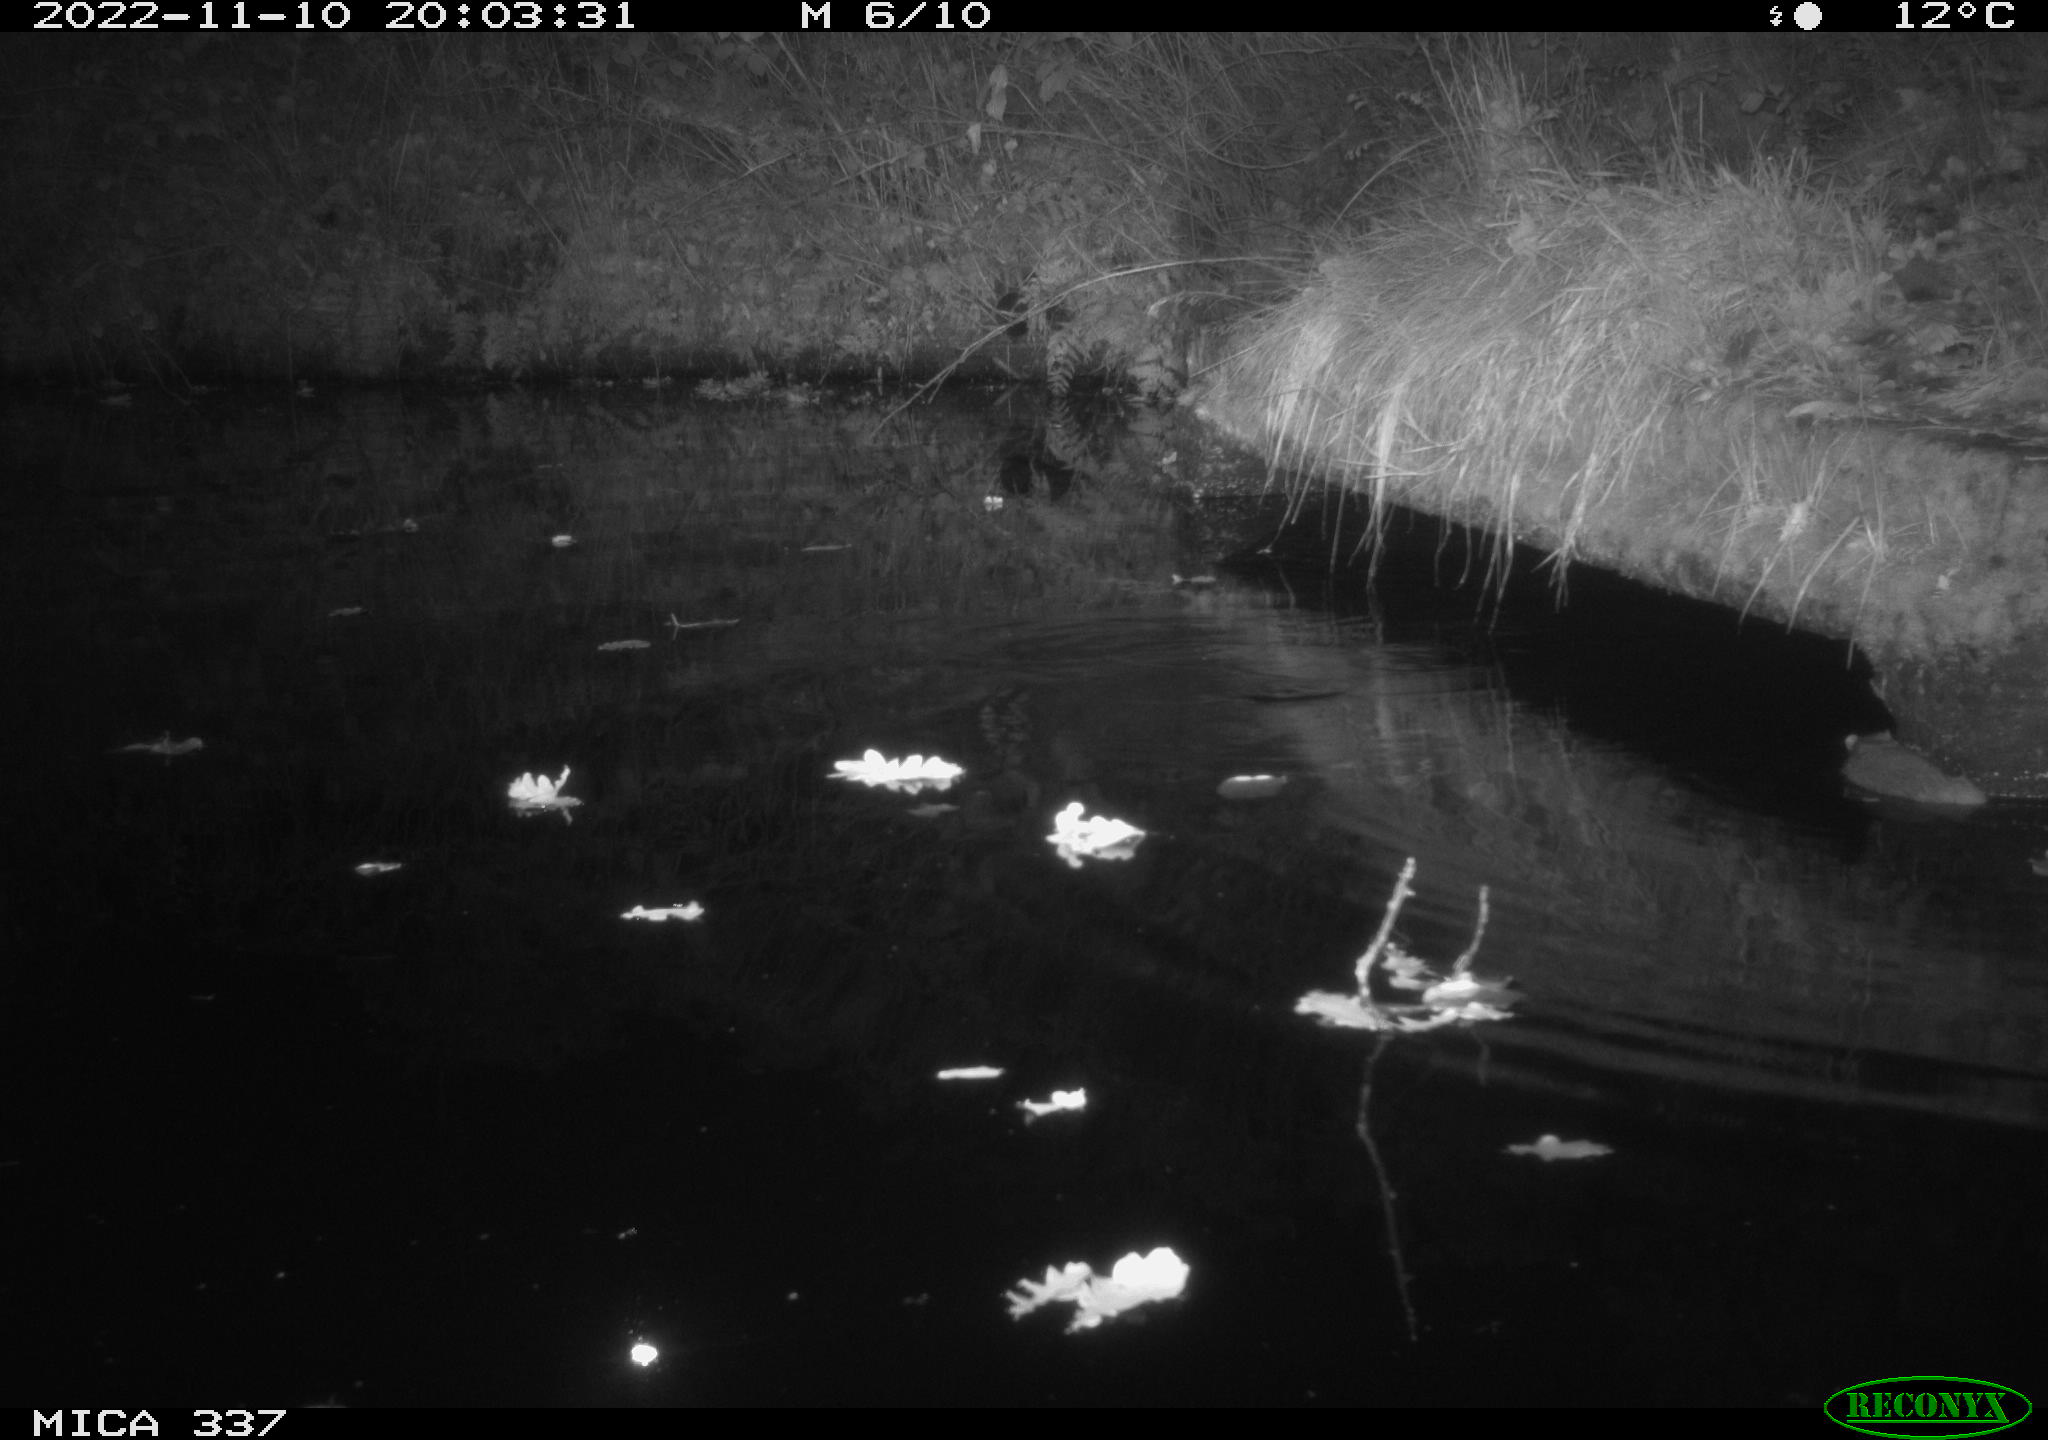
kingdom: Animalia
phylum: Chordata
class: Mammalia
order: Rodentia
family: Muridae
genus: Rattus
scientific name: Rattus norvegicus
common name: Brown rat
